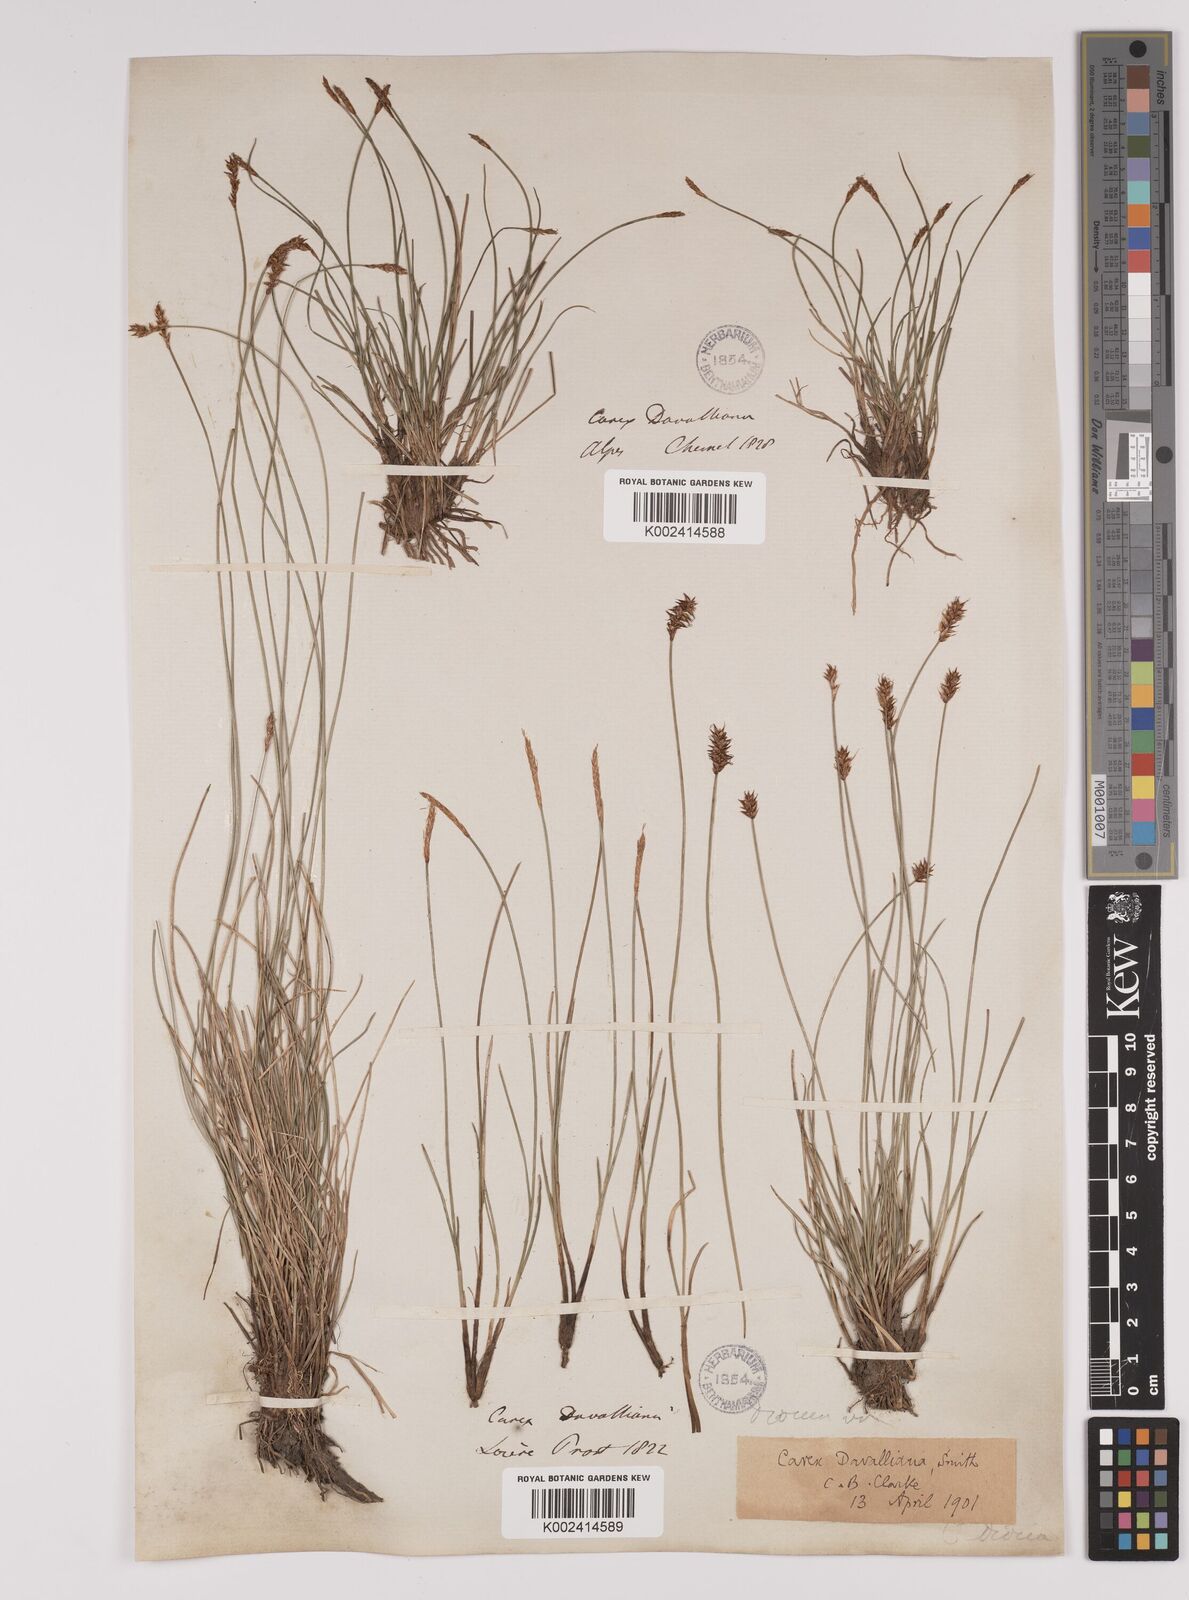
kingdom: Plantae
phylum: Tracheophyta
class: Liliopsida
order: Poales
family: Cyperaceae
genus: Carex
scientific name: Carex davalliana
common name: Davall's sedge
